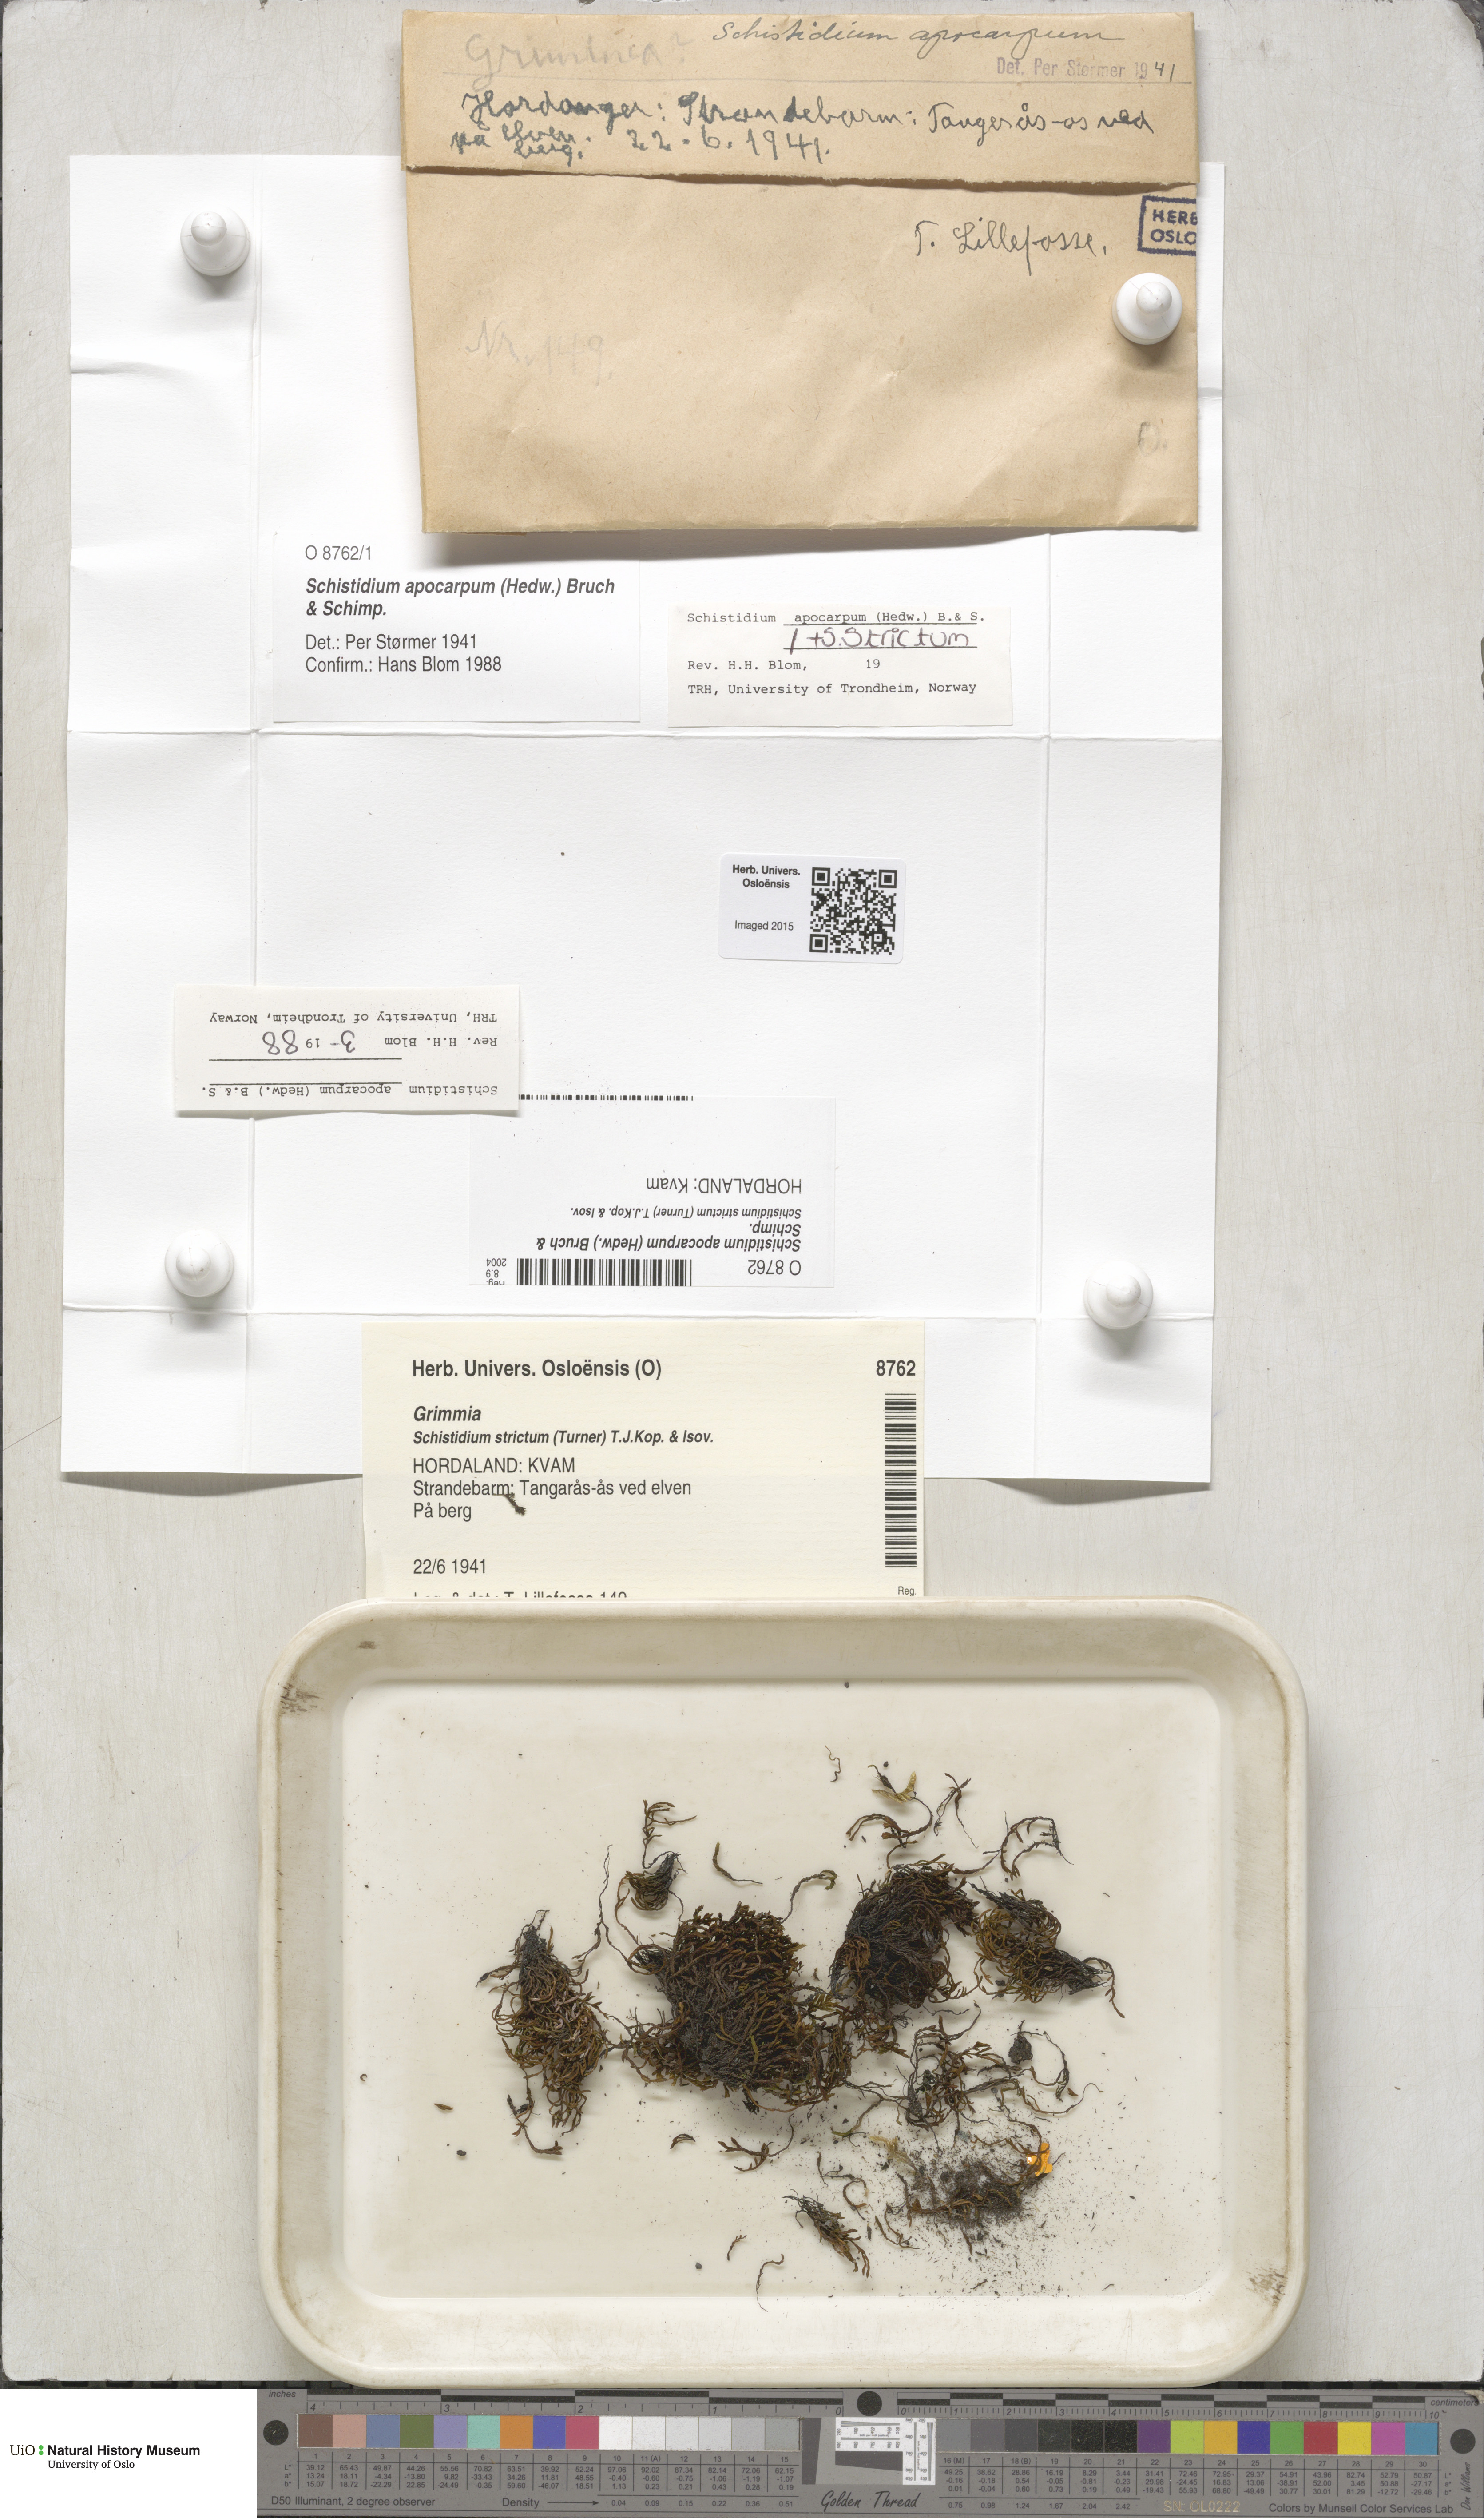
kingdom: Plantae
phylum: Bryophyta
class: Bryopsida
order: Grimmiales
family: Grimmiaceae
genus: Schistidium
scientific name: Schistidium apocarpum
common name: Radiate bloom moss
